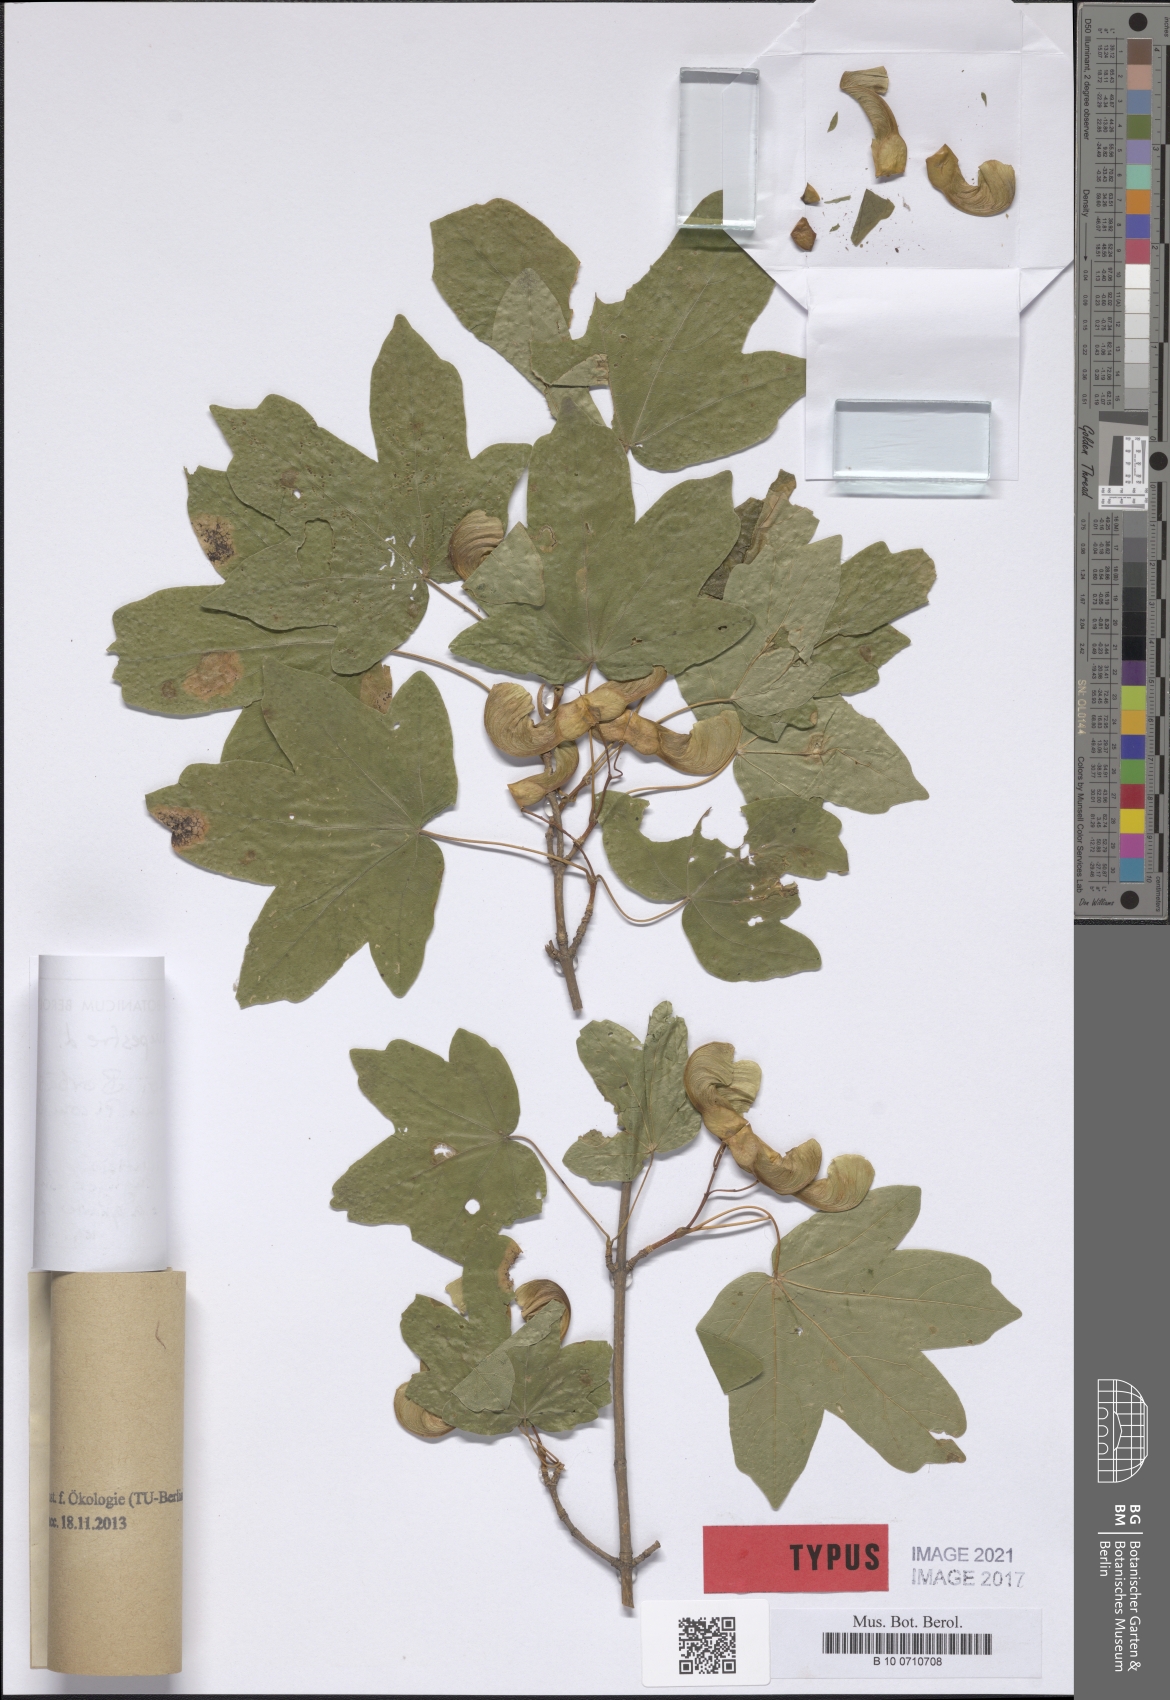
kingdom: Plantae
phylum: Tracheophyta
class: Magnoliopsida
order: Sapindales
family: Sapindaceae
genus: Acer
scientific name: Acer campestre
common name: Field maple
